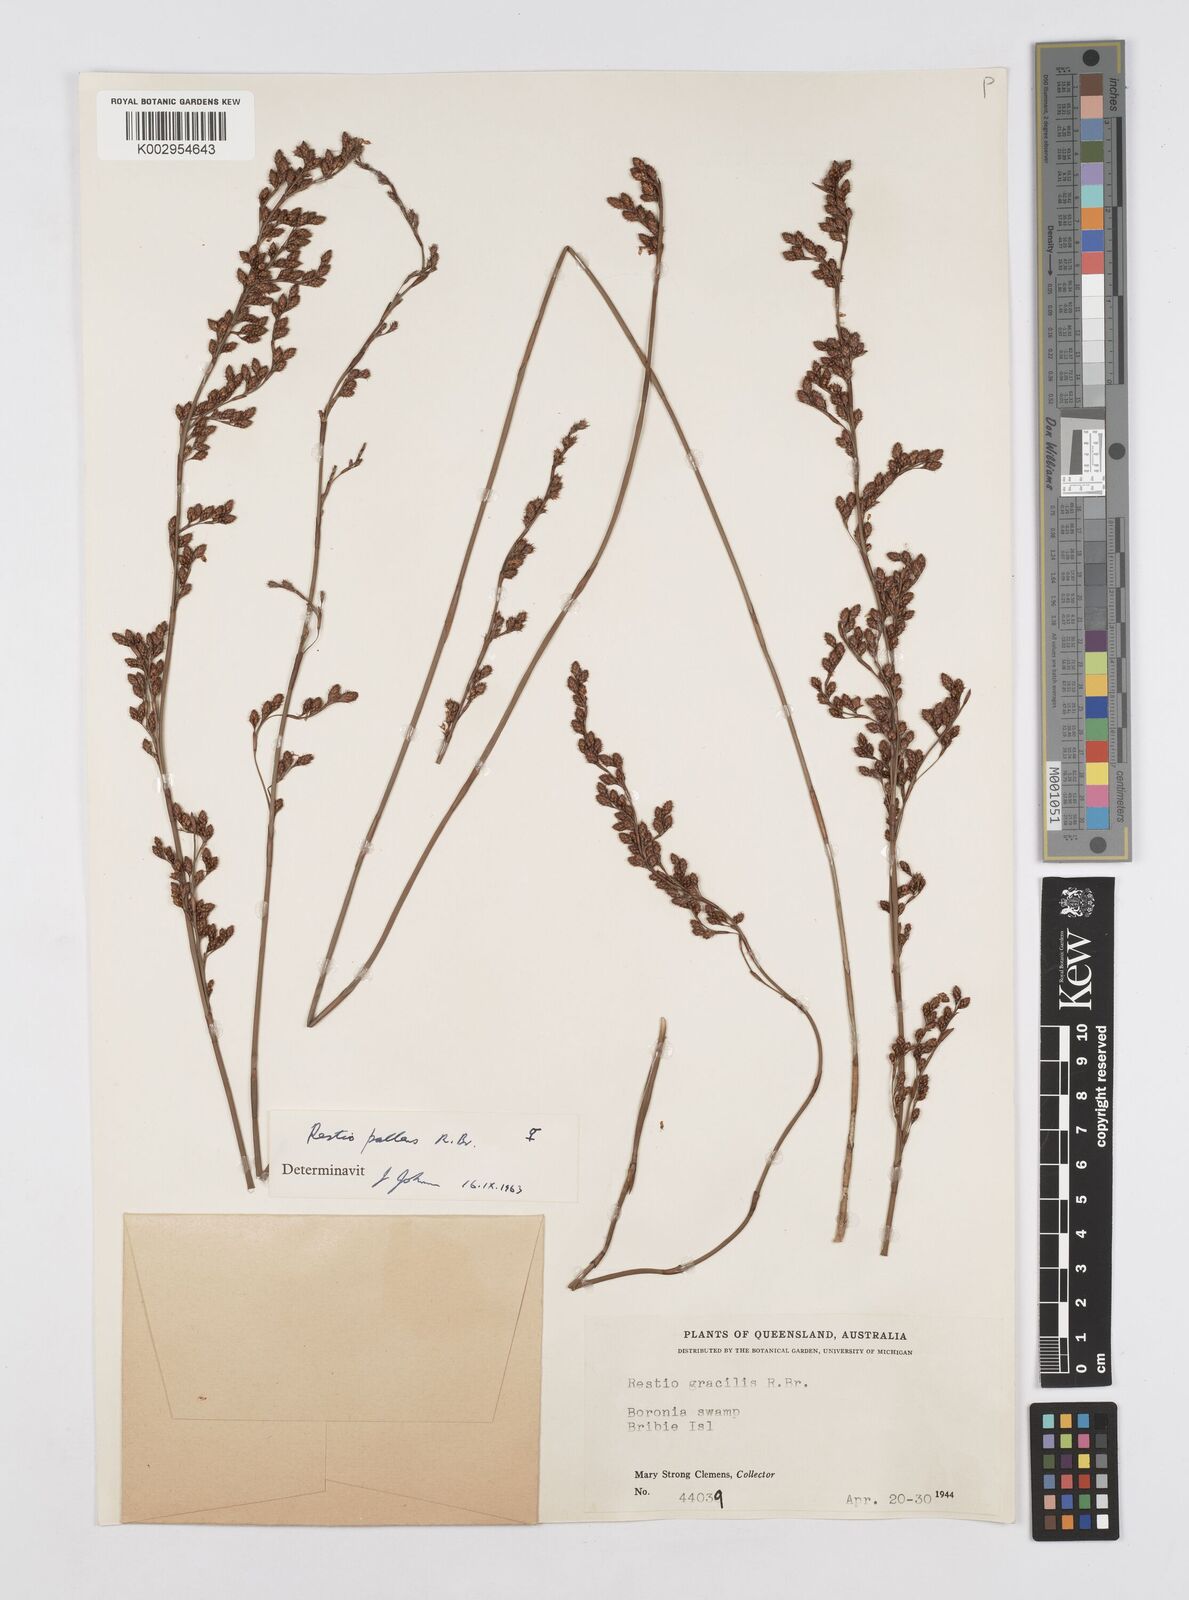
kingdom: Plantae
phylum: Tracheophyta
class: Liliopsida
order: Poales
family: Restionaceae
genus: Baloskion
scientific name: Baloskion pallens
